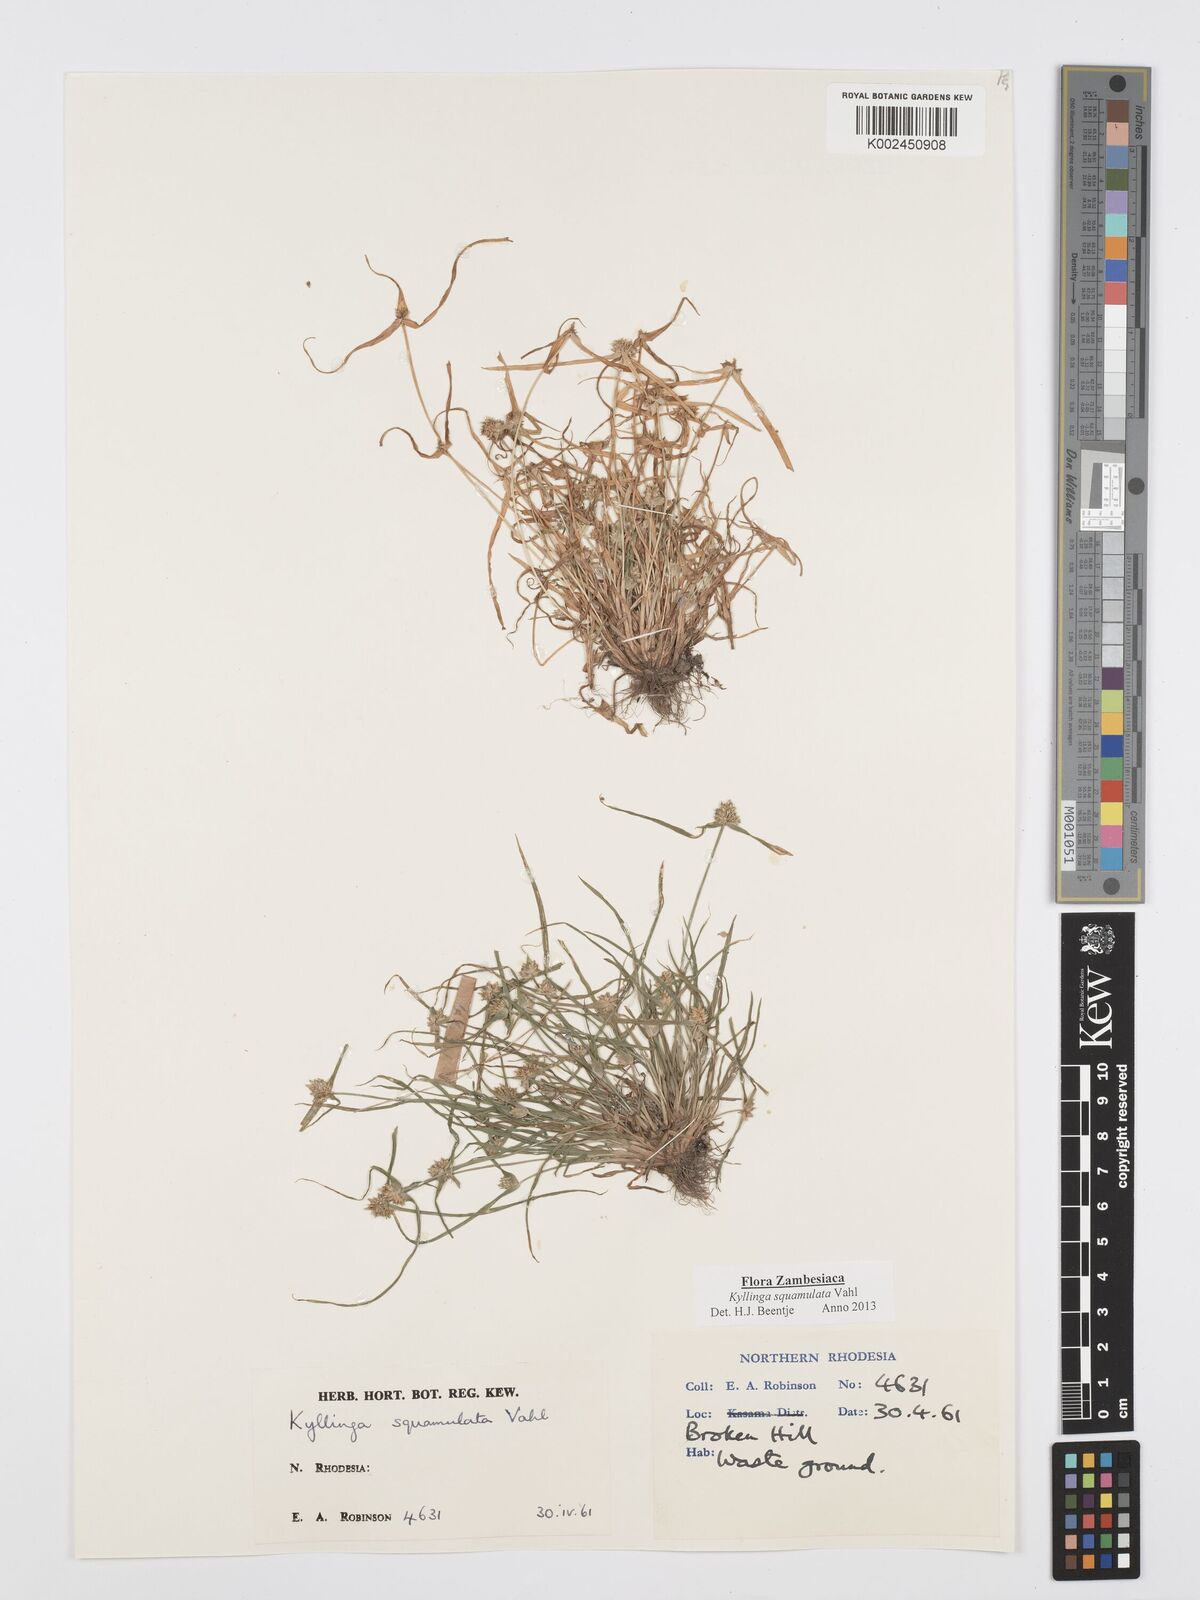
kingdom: Plantae
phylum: Tracheophyta
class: Liliopsida
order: Poales
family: Cyperaceae
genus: Cyperus
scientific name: Cyperus distans
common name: Slender cyperus
